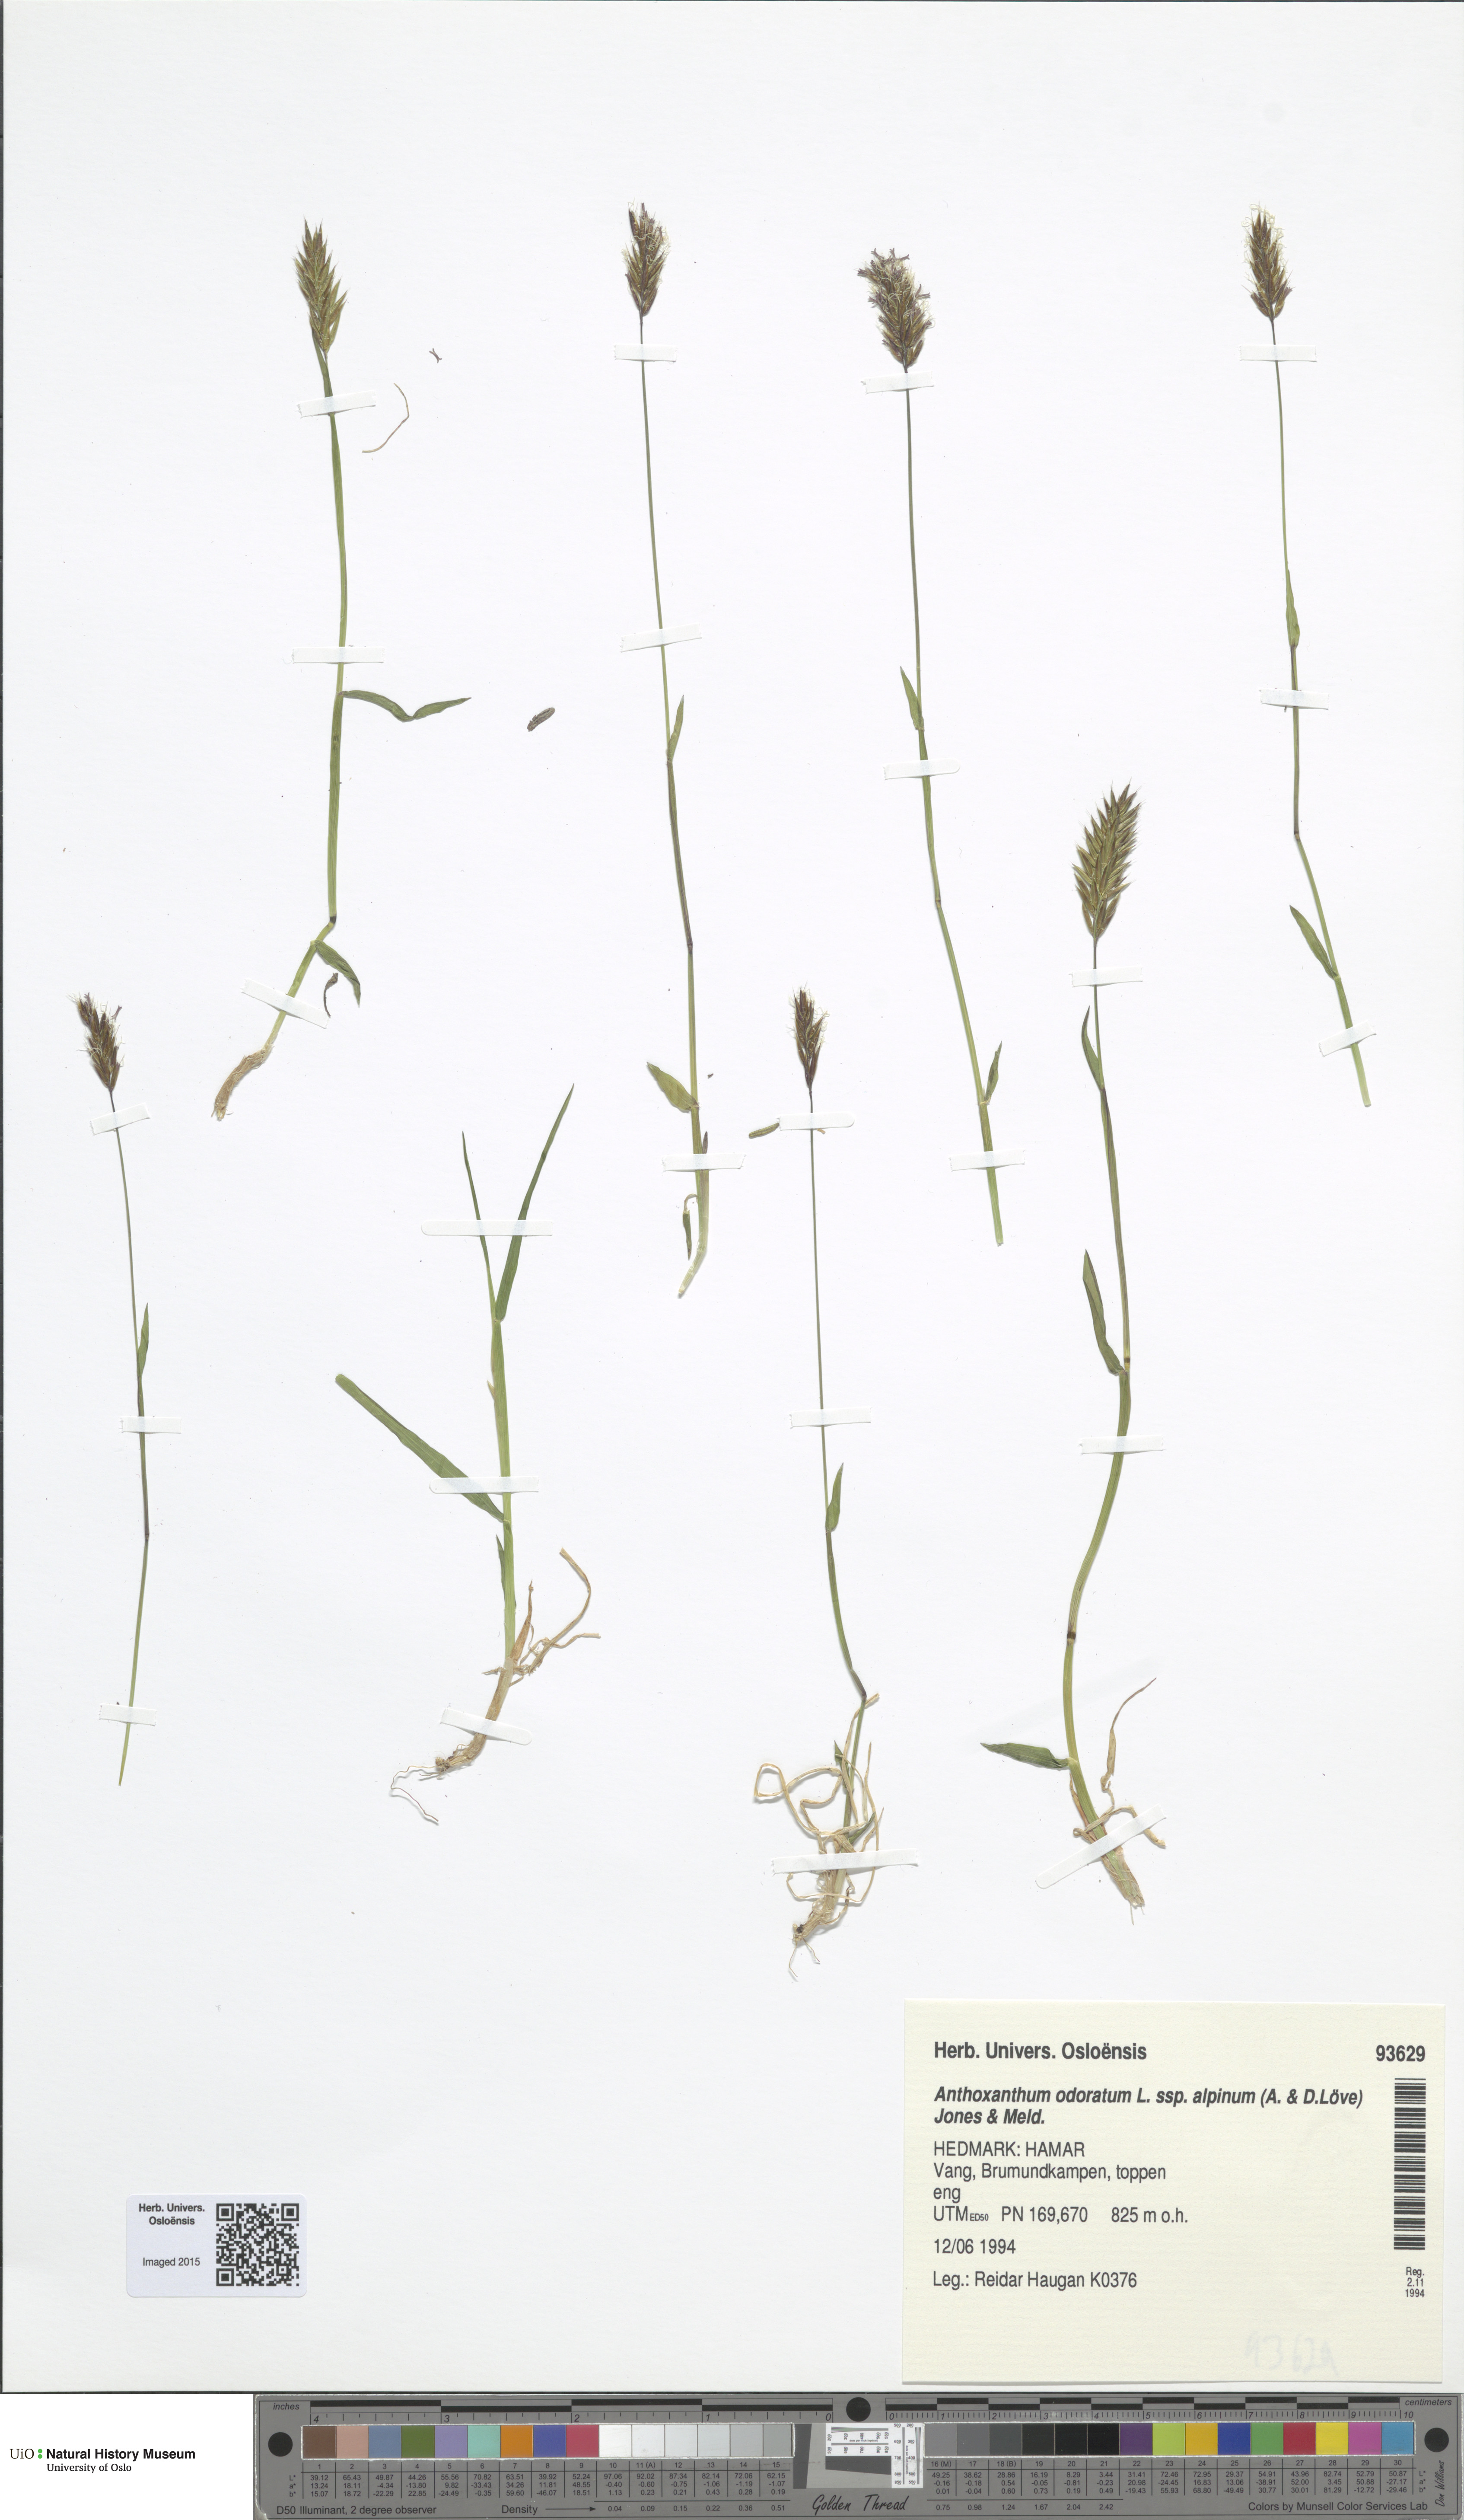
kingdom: Plantae
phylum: Tracheophyta
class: Liliopsida
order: Poales
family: Poaceae
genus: Anthoxanthum
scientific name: Anthoxanthum nipponicum
